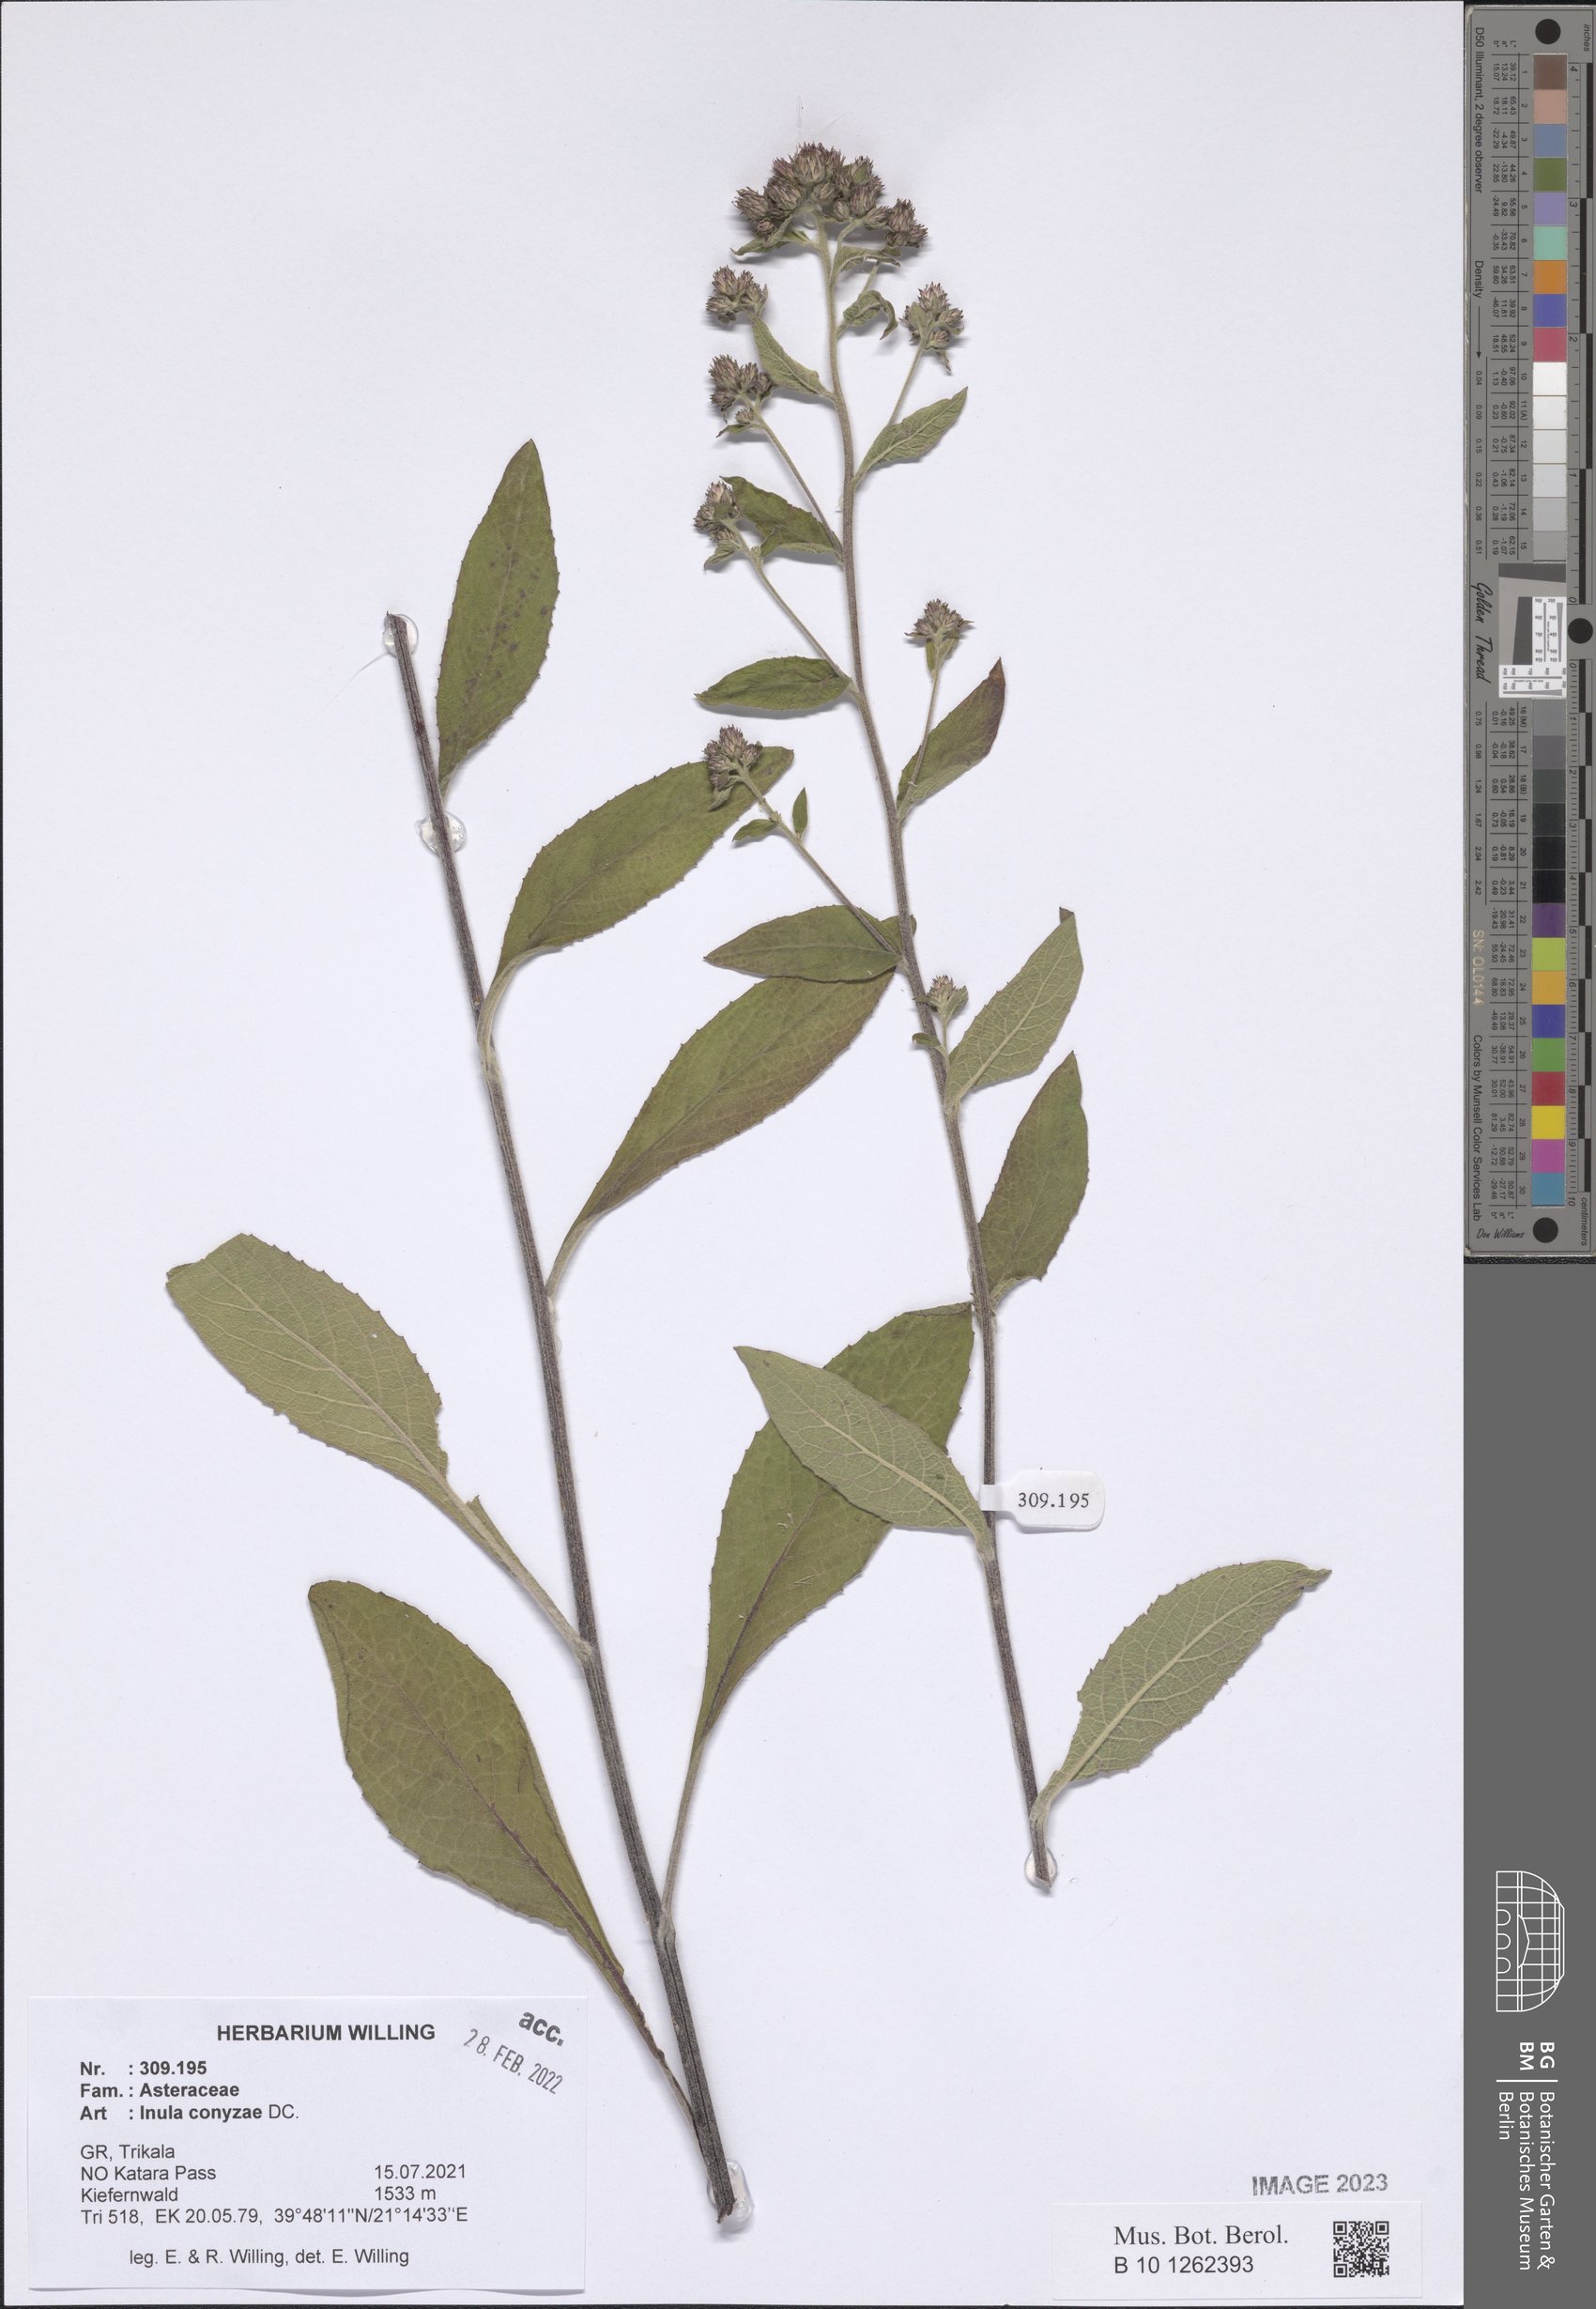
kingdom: Plantae
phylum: Tracheophyta
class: Magnoliopsida
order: Asterales
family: Asteraceae
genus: Pentanema
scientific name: Pentanema squarrosum
